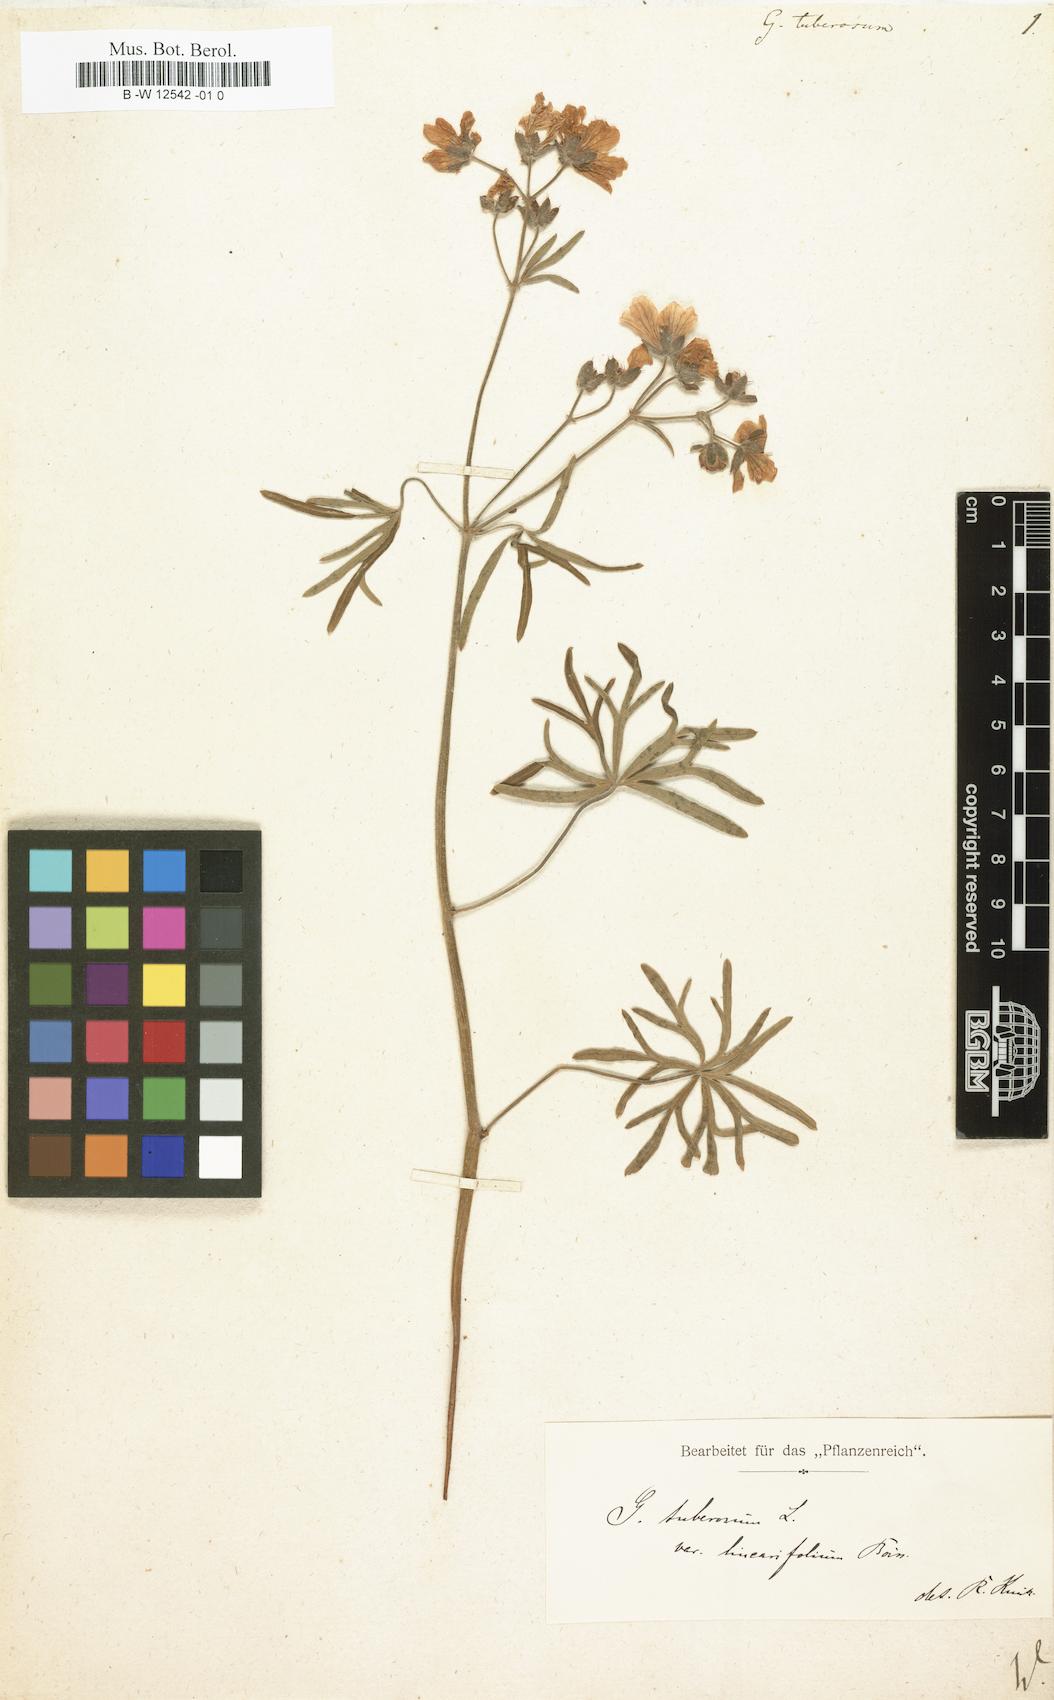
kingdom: Plantae
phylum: Tracheophyta
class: Magnoliopsida
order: Geraniales
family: Geraniaceae
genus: Geranium
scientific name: Geranium tuberosum
